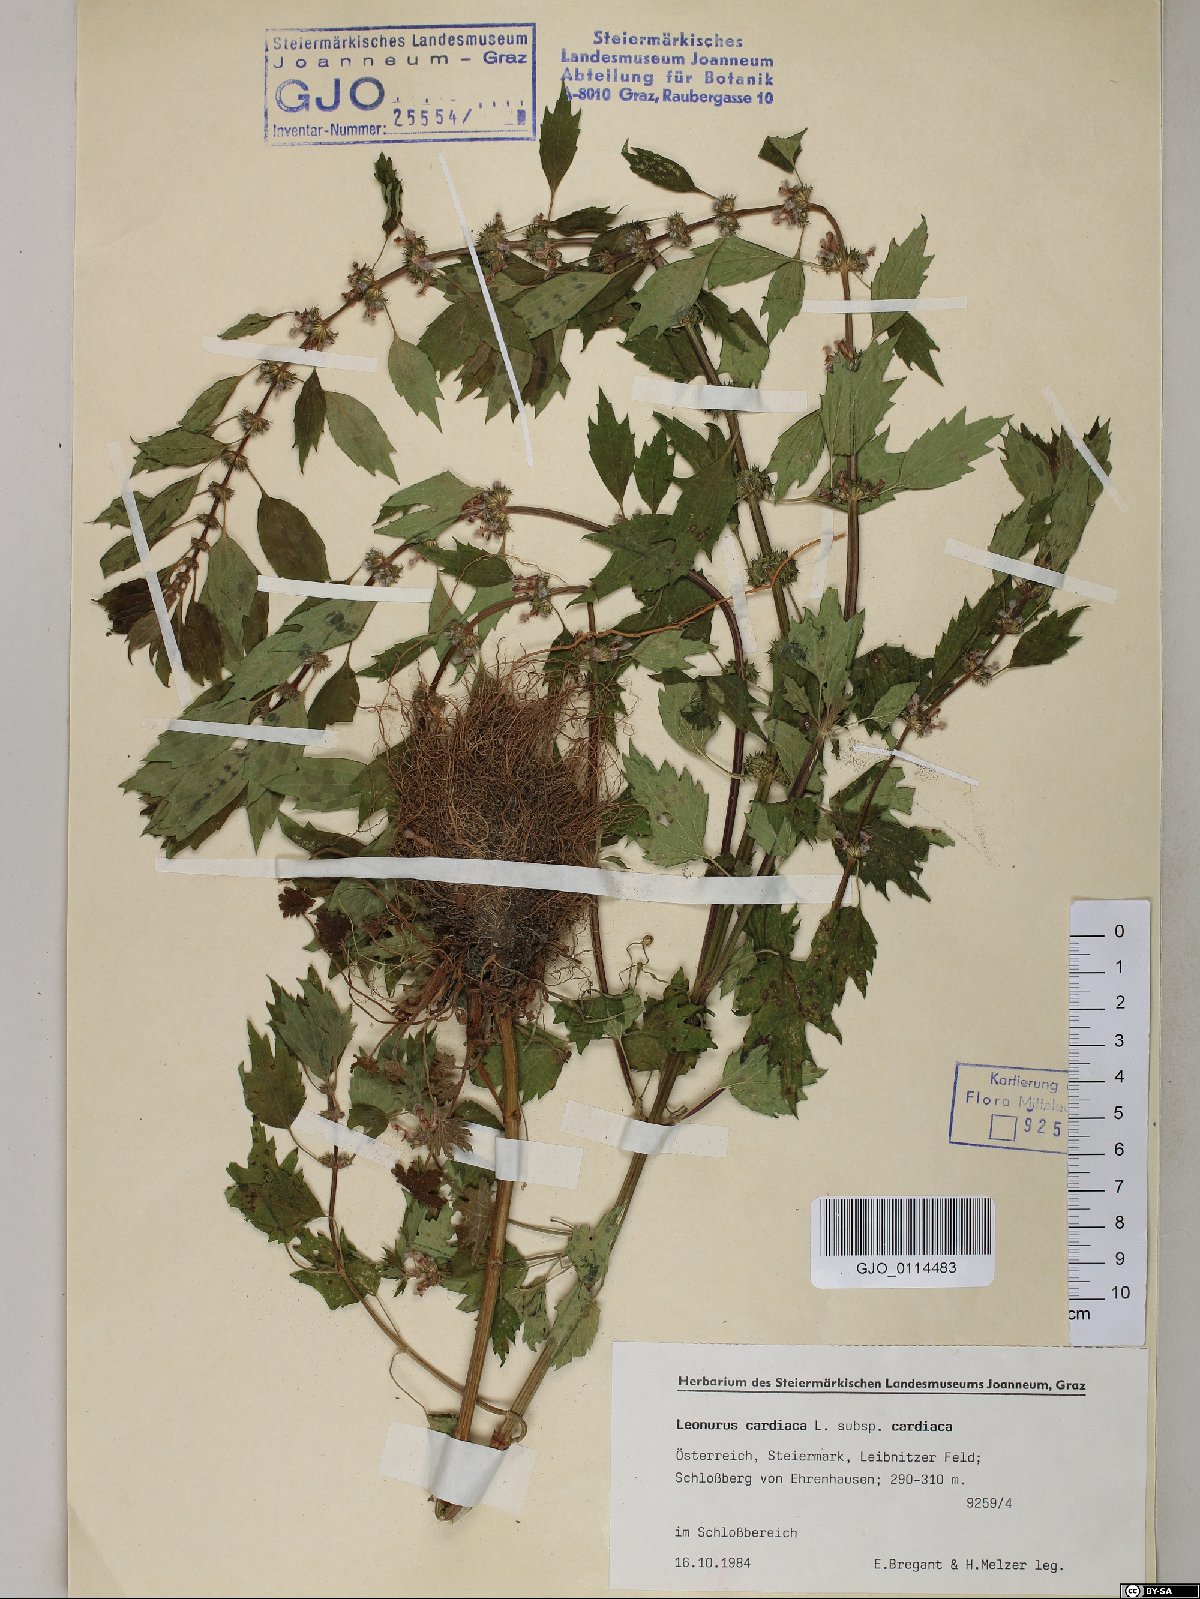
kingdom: Plantae
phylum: Tracheophyta
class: Magnoliopsida
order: Lamiales
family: Lamiaceae
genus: Leonurus
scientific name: Leonurus cardiaca
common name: Motherwort
